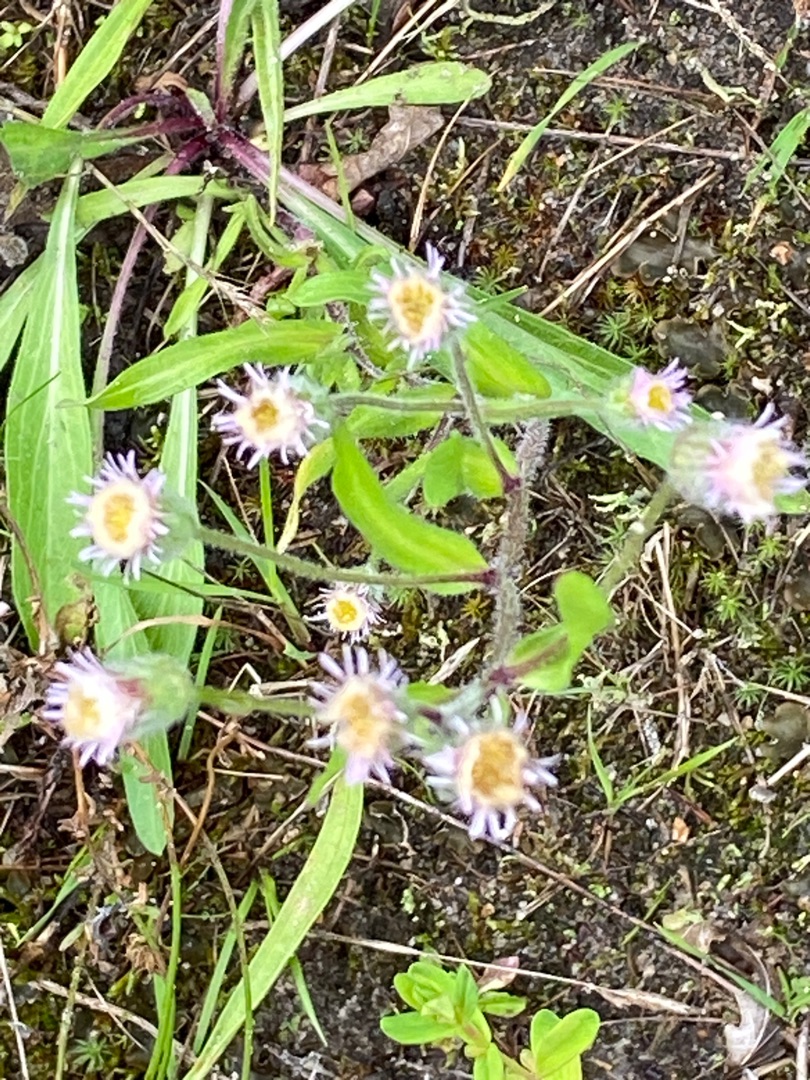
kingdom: Plantae
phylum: Tracheophyta
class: Magnoliopsida
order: Asterales
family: Asteraceae
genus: Erigeron
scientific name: Erigeron acris
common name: Bitter bakkestjerne
